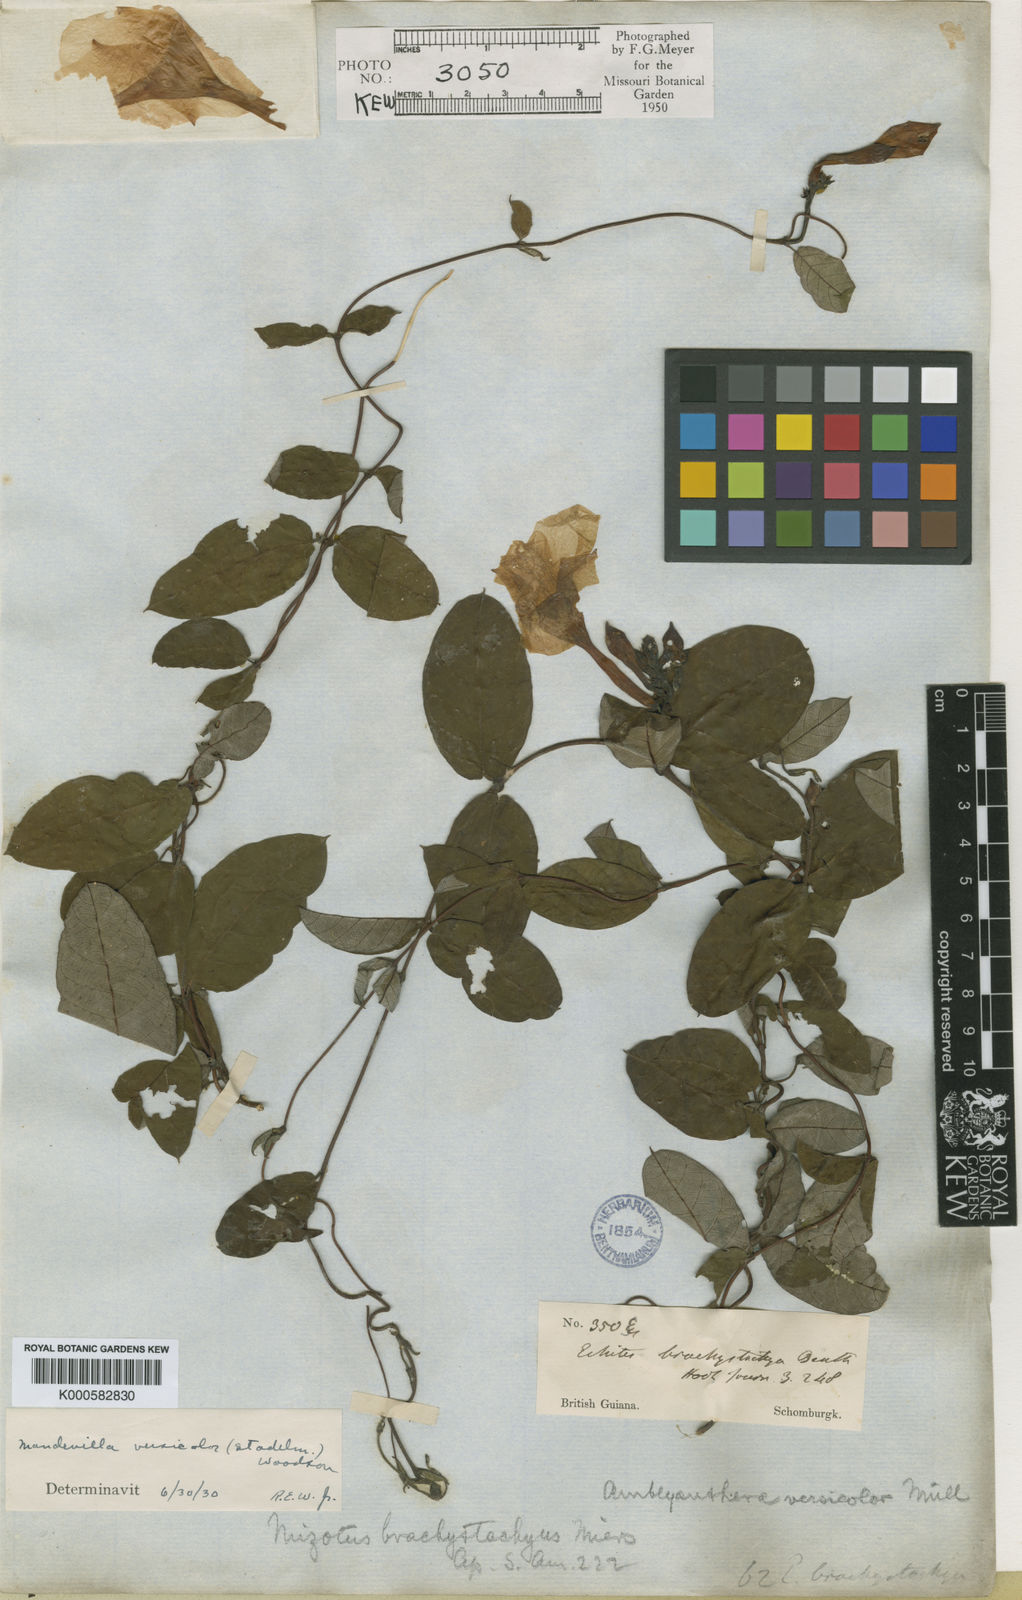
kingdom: Plantae
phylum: Tracheophyta
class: Magnoliopsida
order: Gentianales
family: Apocynaceae
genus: Mandevilla
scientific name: Mandevilla scabra
